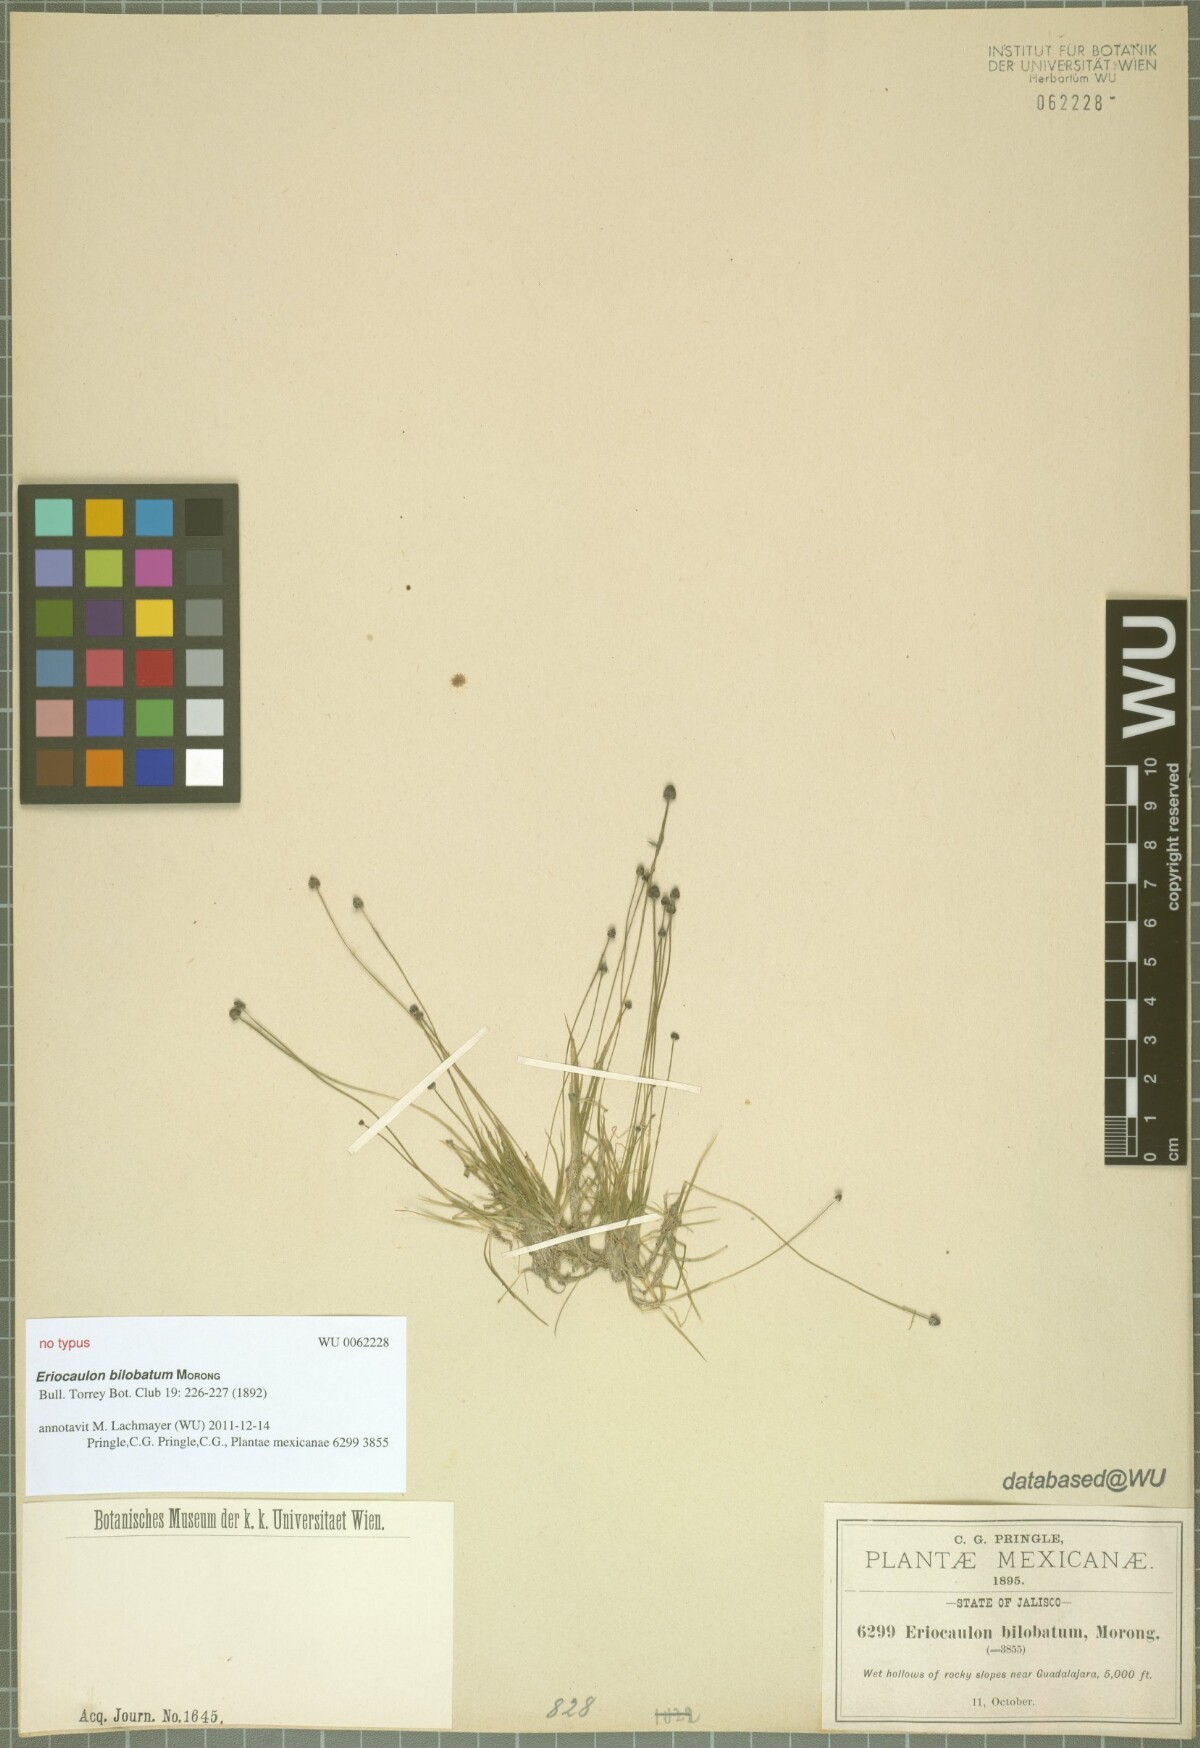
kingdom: Plantae
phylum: Tracheophyta
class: Liliopsida
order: Poales
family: Eriocaulaceae
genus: Eriocaulon
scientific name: Eriocaulon bilobatum
